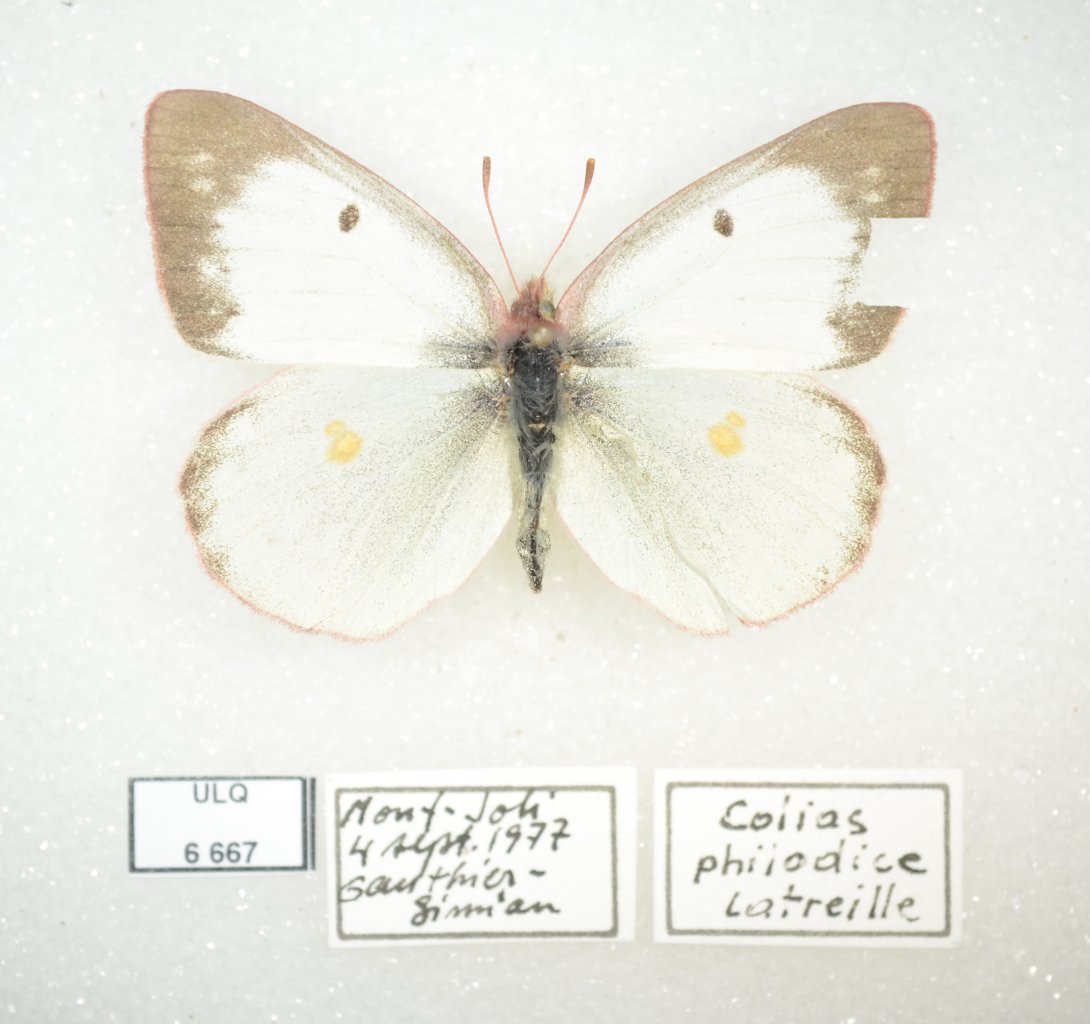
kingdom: Animalia
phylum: Arthropoda
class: Insecta
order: Lepidoptera
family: Pieridae
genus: Colias
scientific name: Colias philodice
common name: Clouded Sulphur
